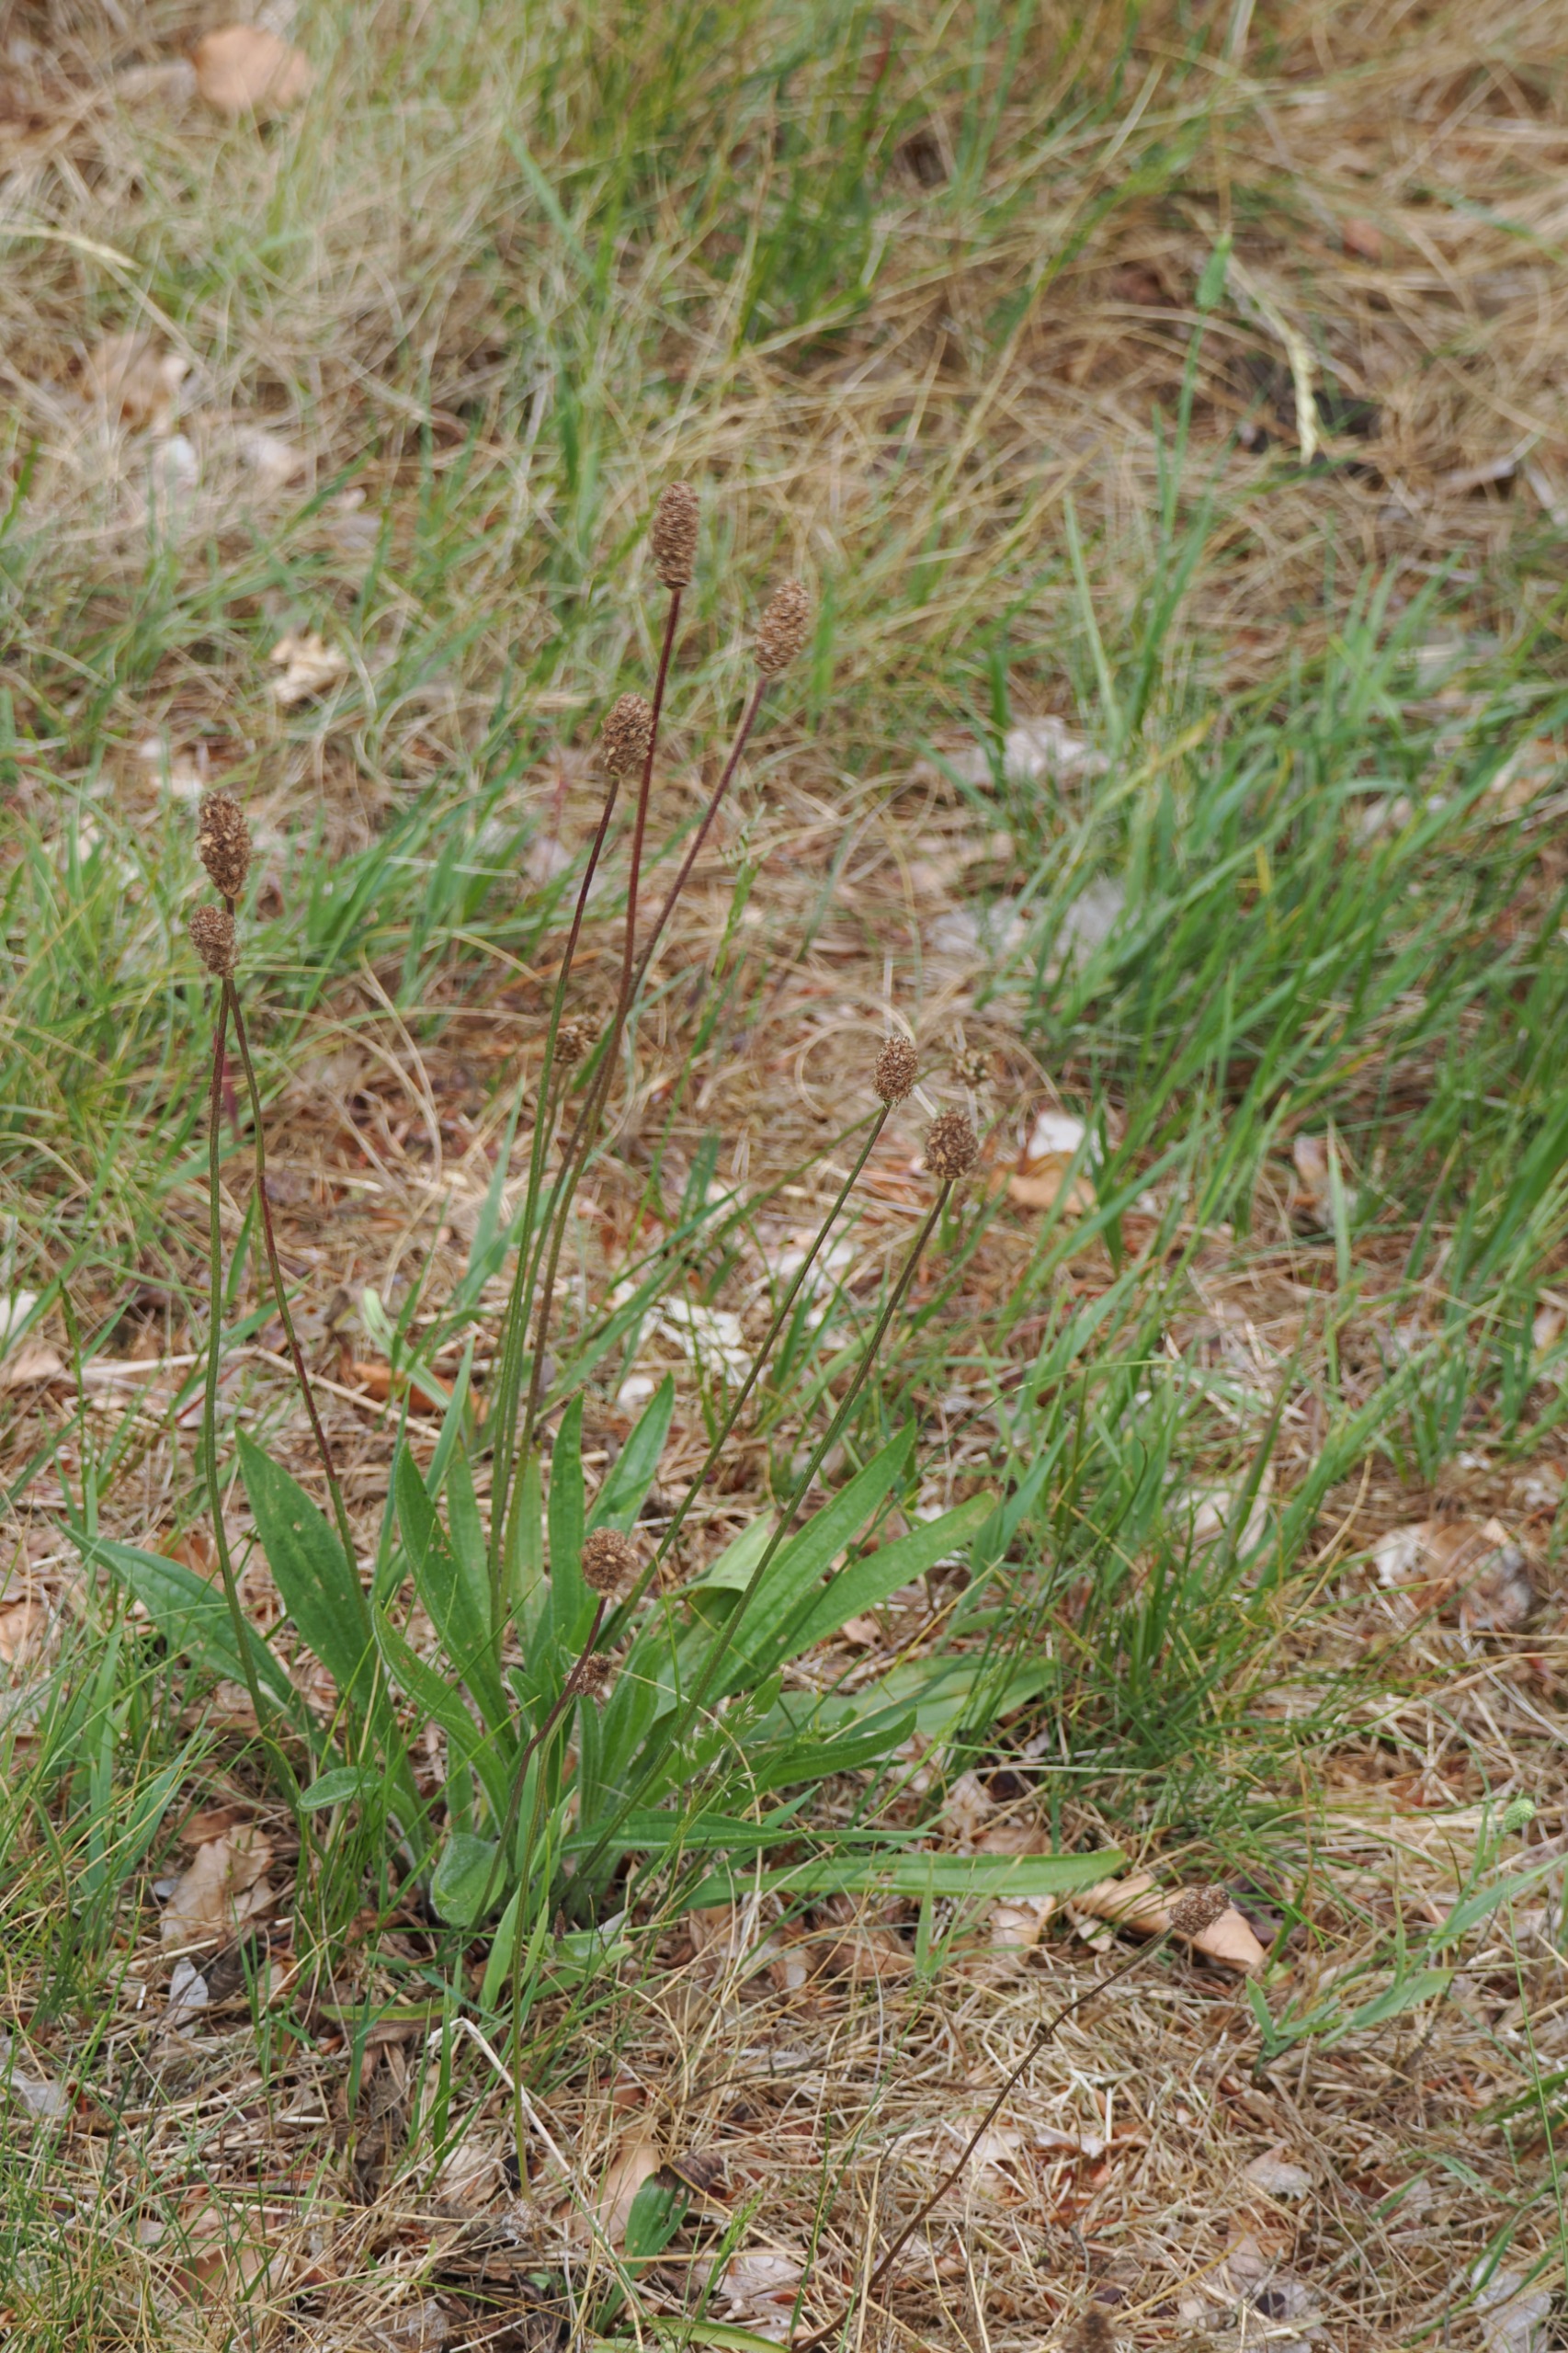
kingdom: Plantae
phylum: Tracheophyta
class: Magnoliopsida
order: Lamiales
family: Plantaginaceae
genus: Plantago
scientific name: Plantago lanceolata
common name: Lancet-vejbred
